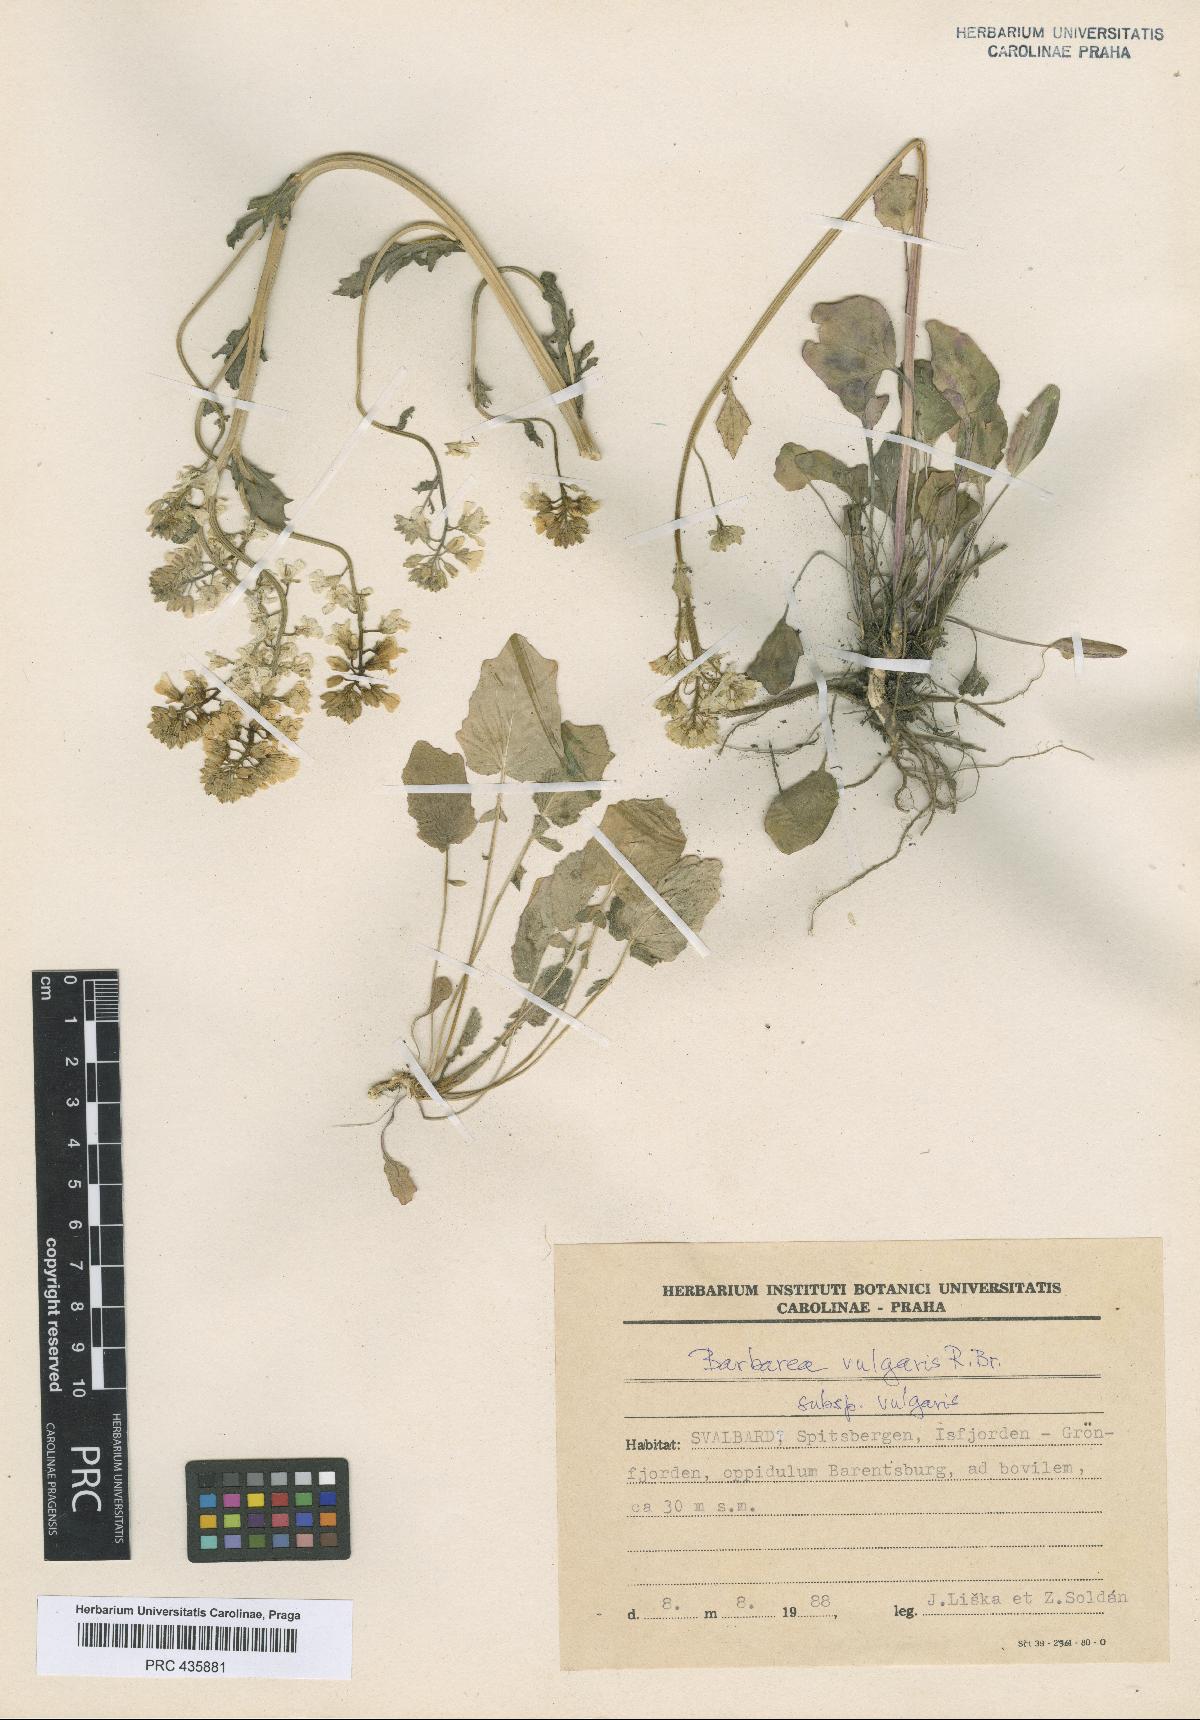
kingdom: Plantae
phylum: Tracheophyta
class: Magnoliopsida
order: Brassicales
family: Brassicaceae
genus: Barbarea
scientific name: Barbarea vulgaris
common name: Cressy-greens
